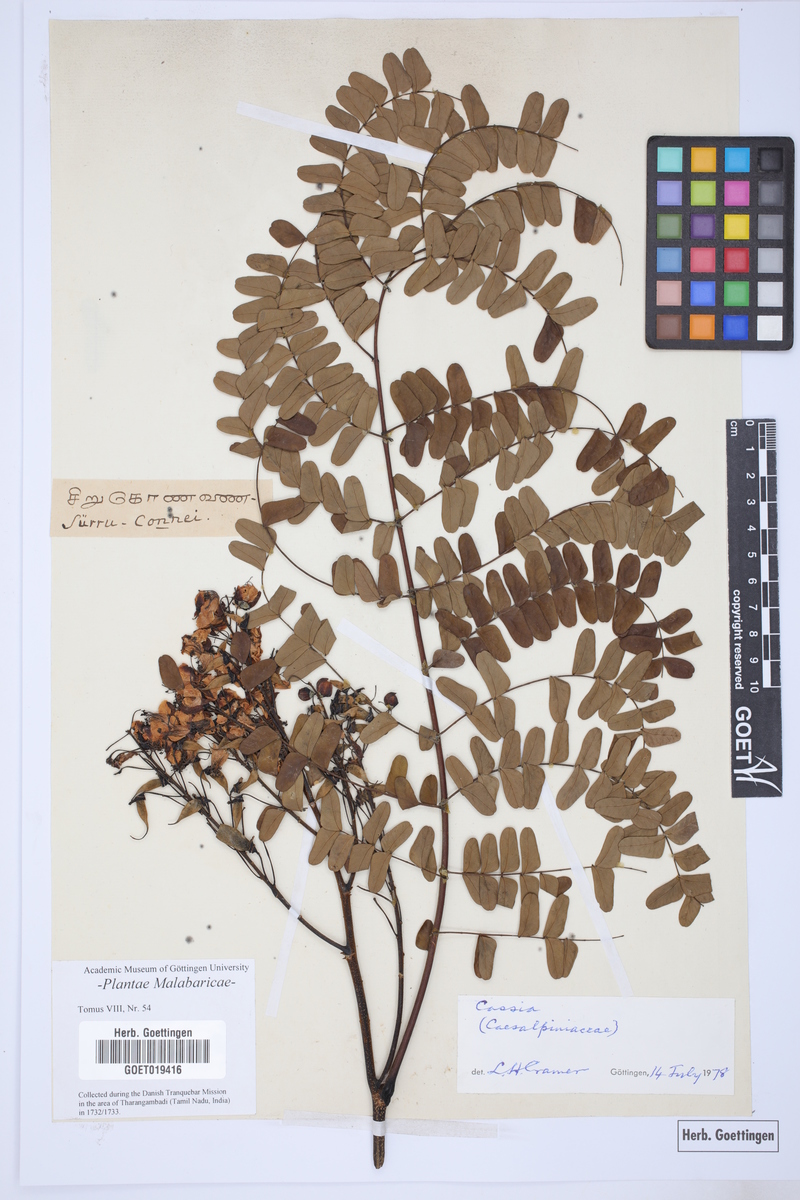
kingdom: Plantae
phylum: Tracheophyta
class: Magnoliopsida
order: Fabales
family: Fabaceae
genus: Cassia
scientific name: Cassia
